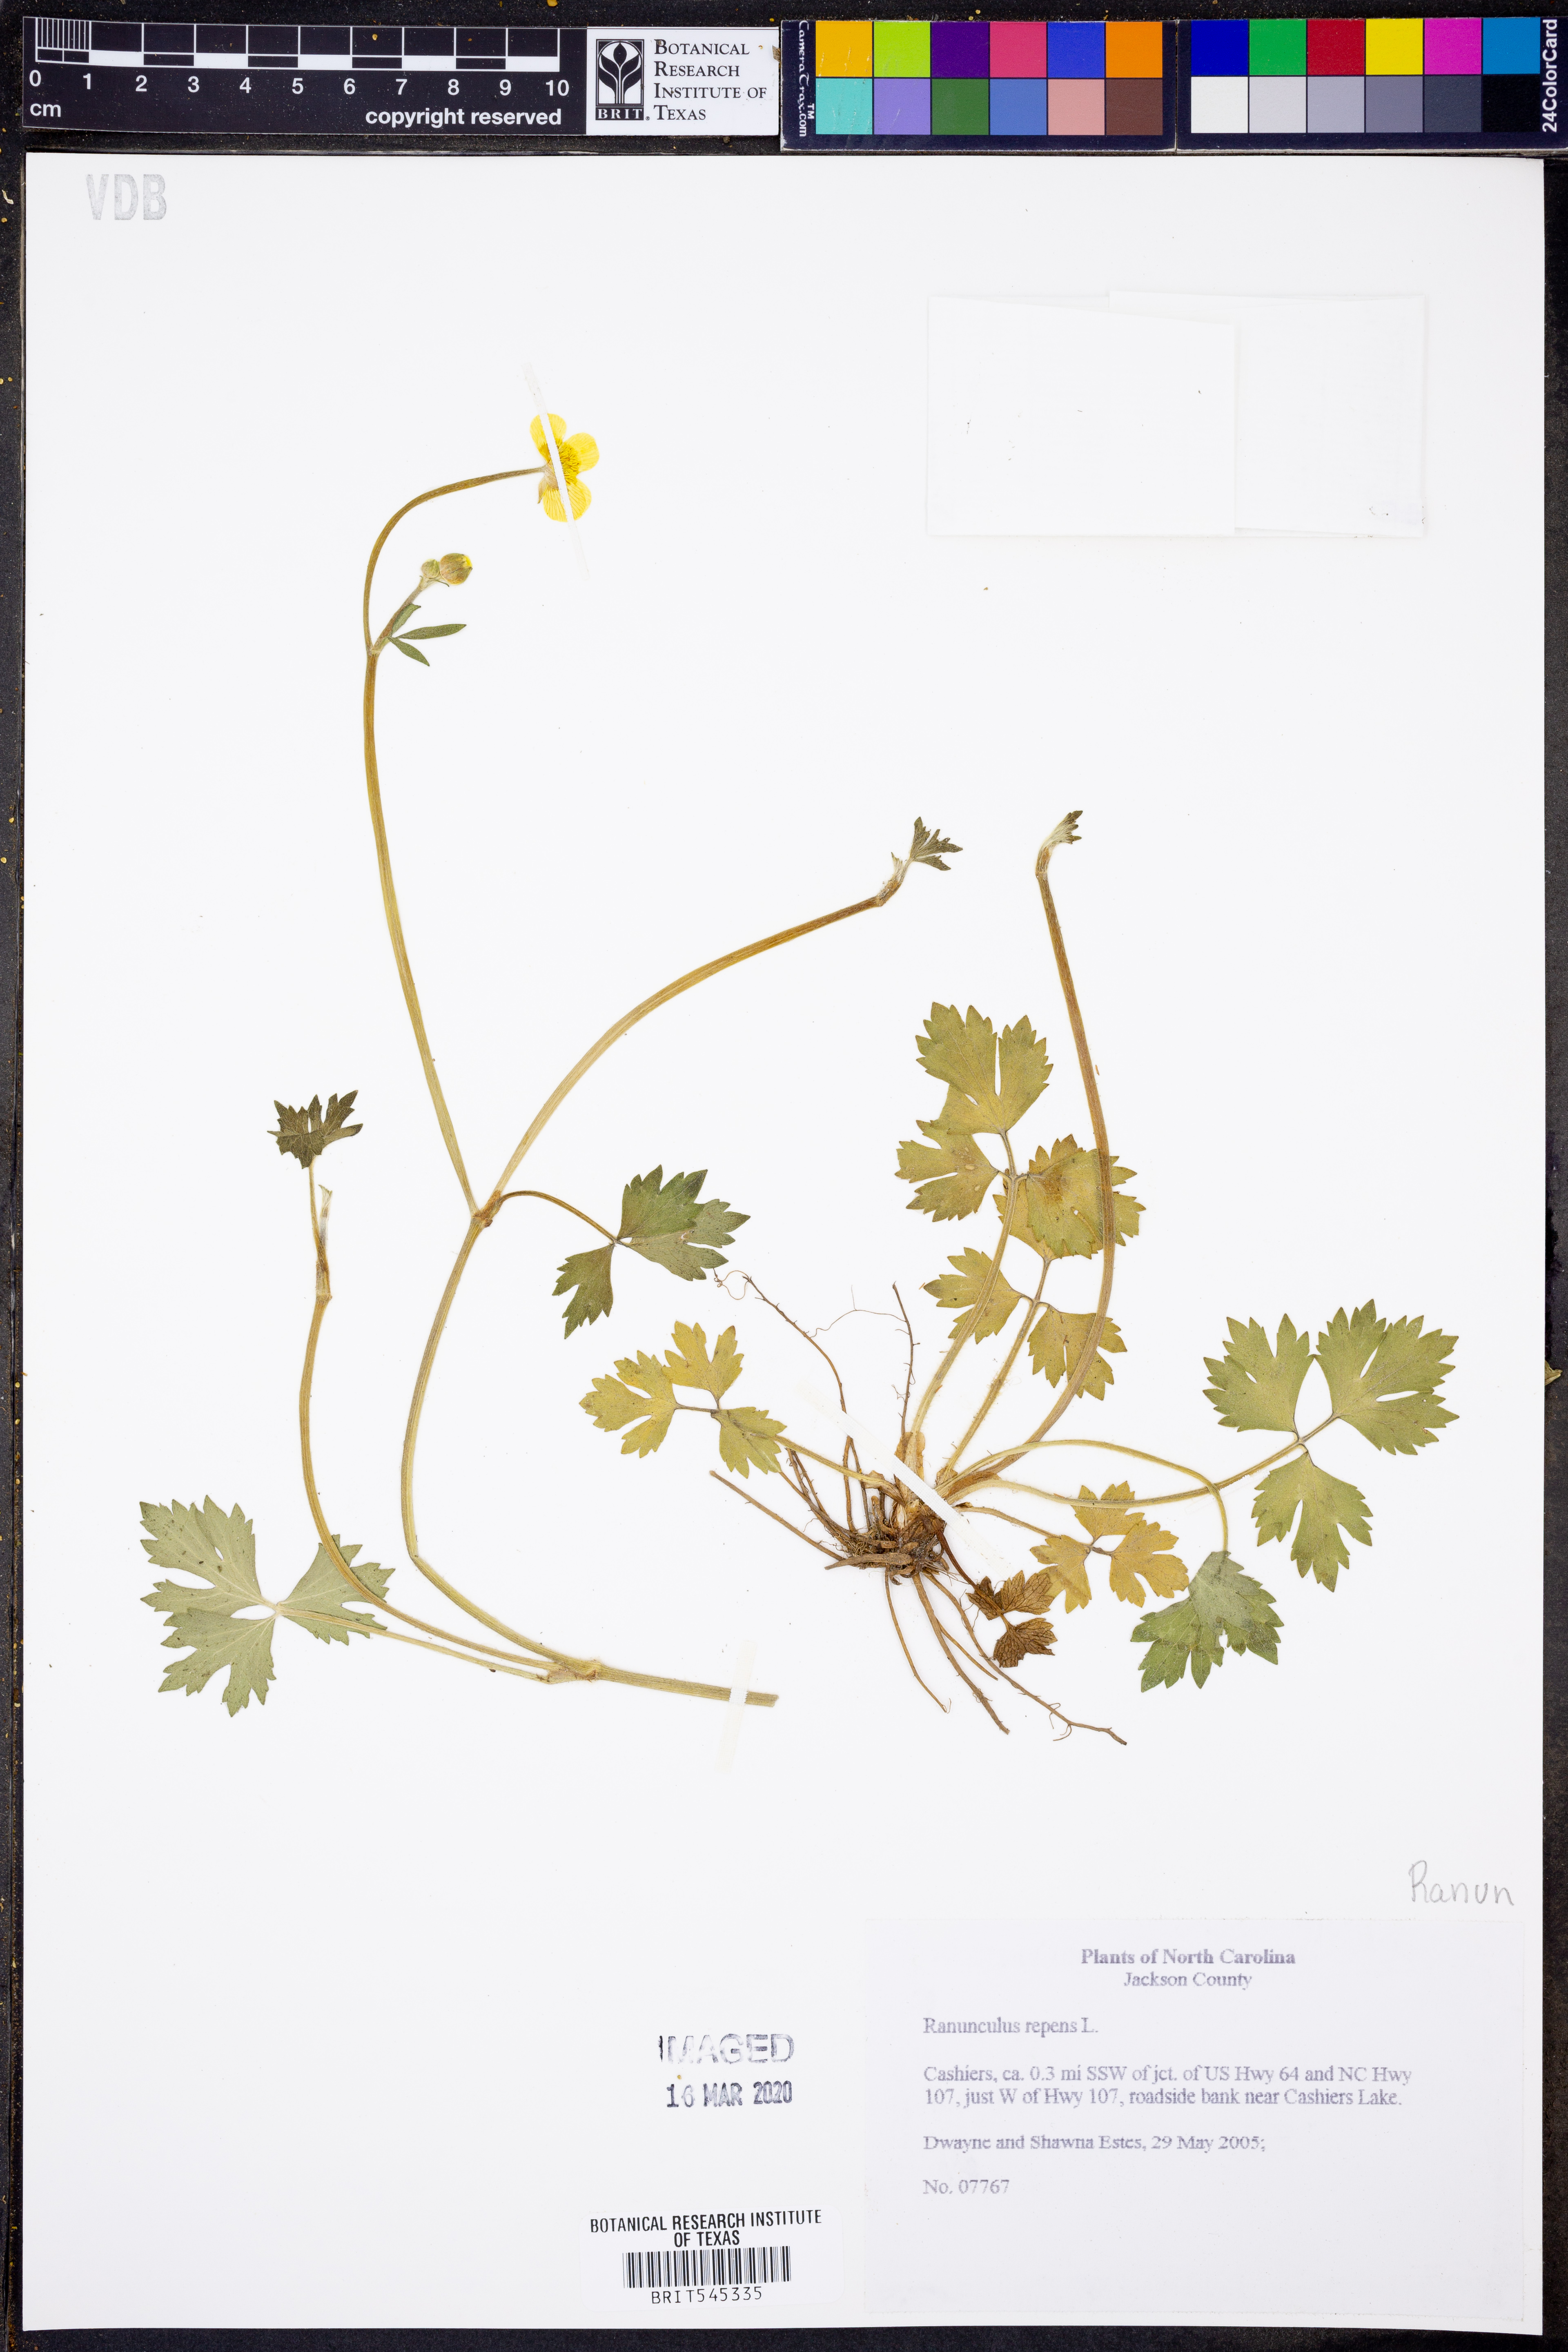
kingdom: Plantae
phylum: Tracheophyta
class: Magnoliopsida
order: Ranunculales
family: Ranunculaceae
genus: Ranunculus
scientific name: Ranunculus repens
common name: Creeping buttercup
